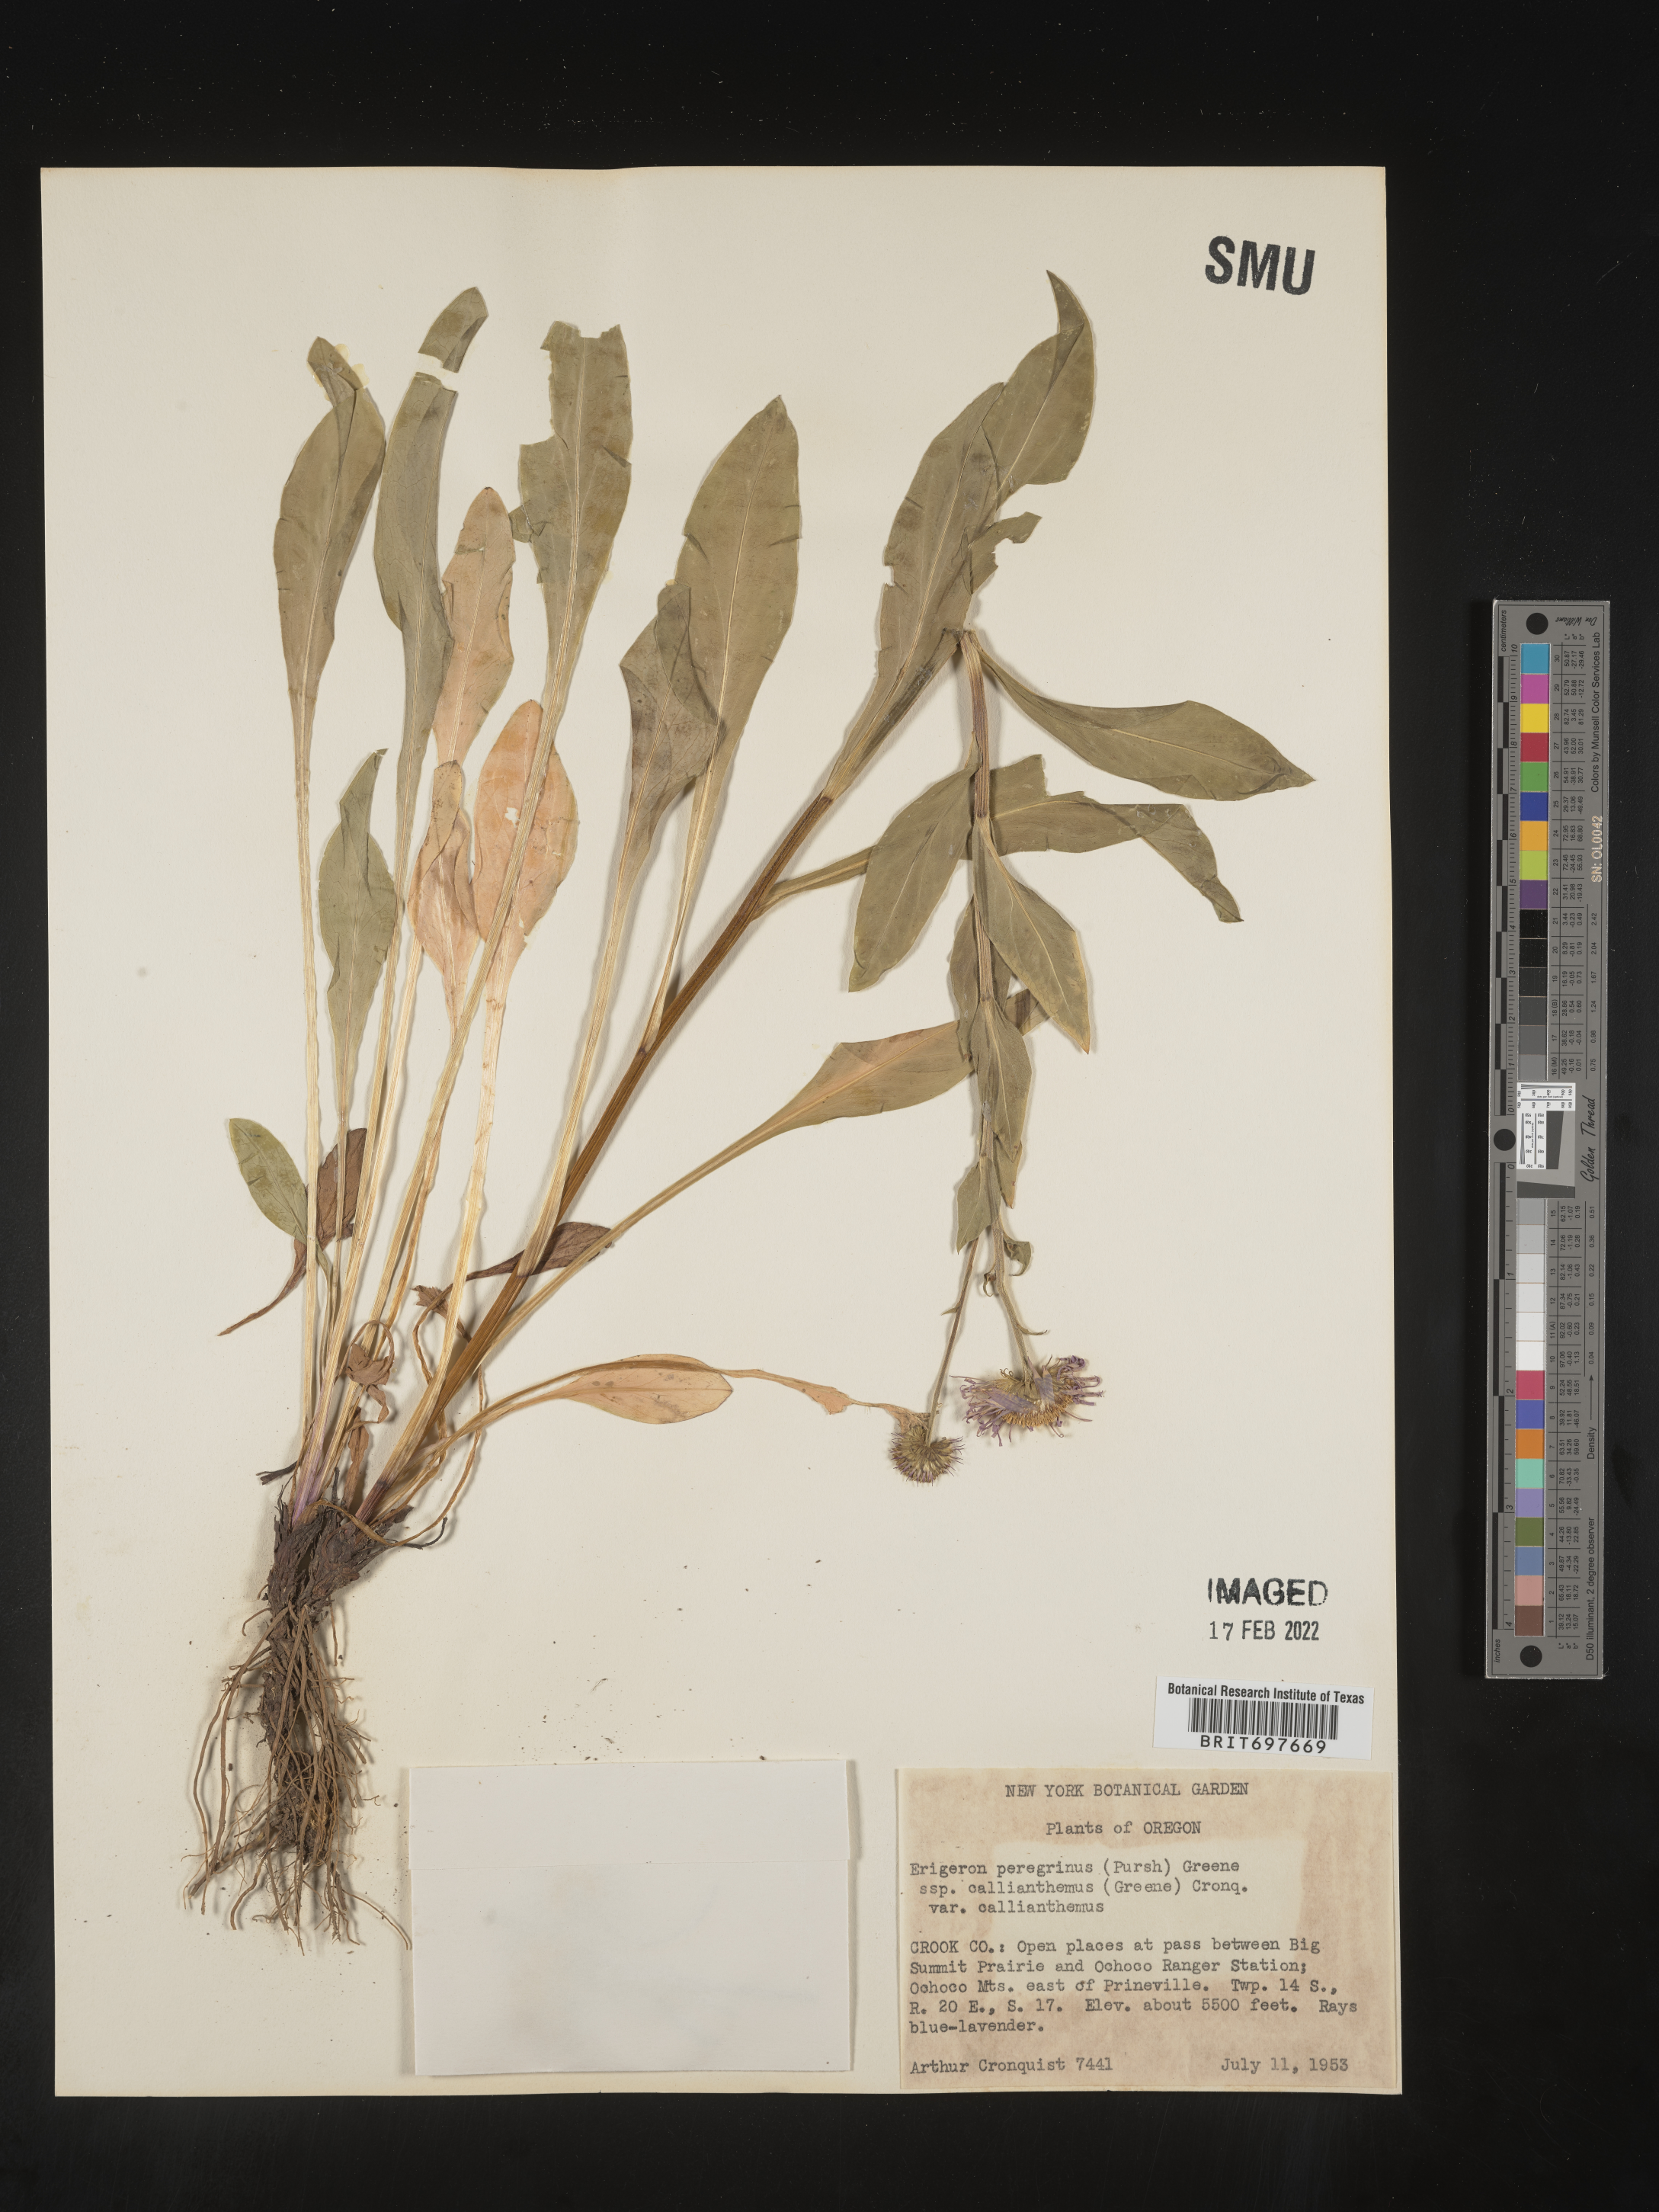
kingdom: Plantae
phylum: Tracheophyta
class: Magnoliopsida
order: Asterales
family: Asteraceae
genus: Erigeron
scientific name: Erigeron glacialis
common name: Subalpine fleabane
